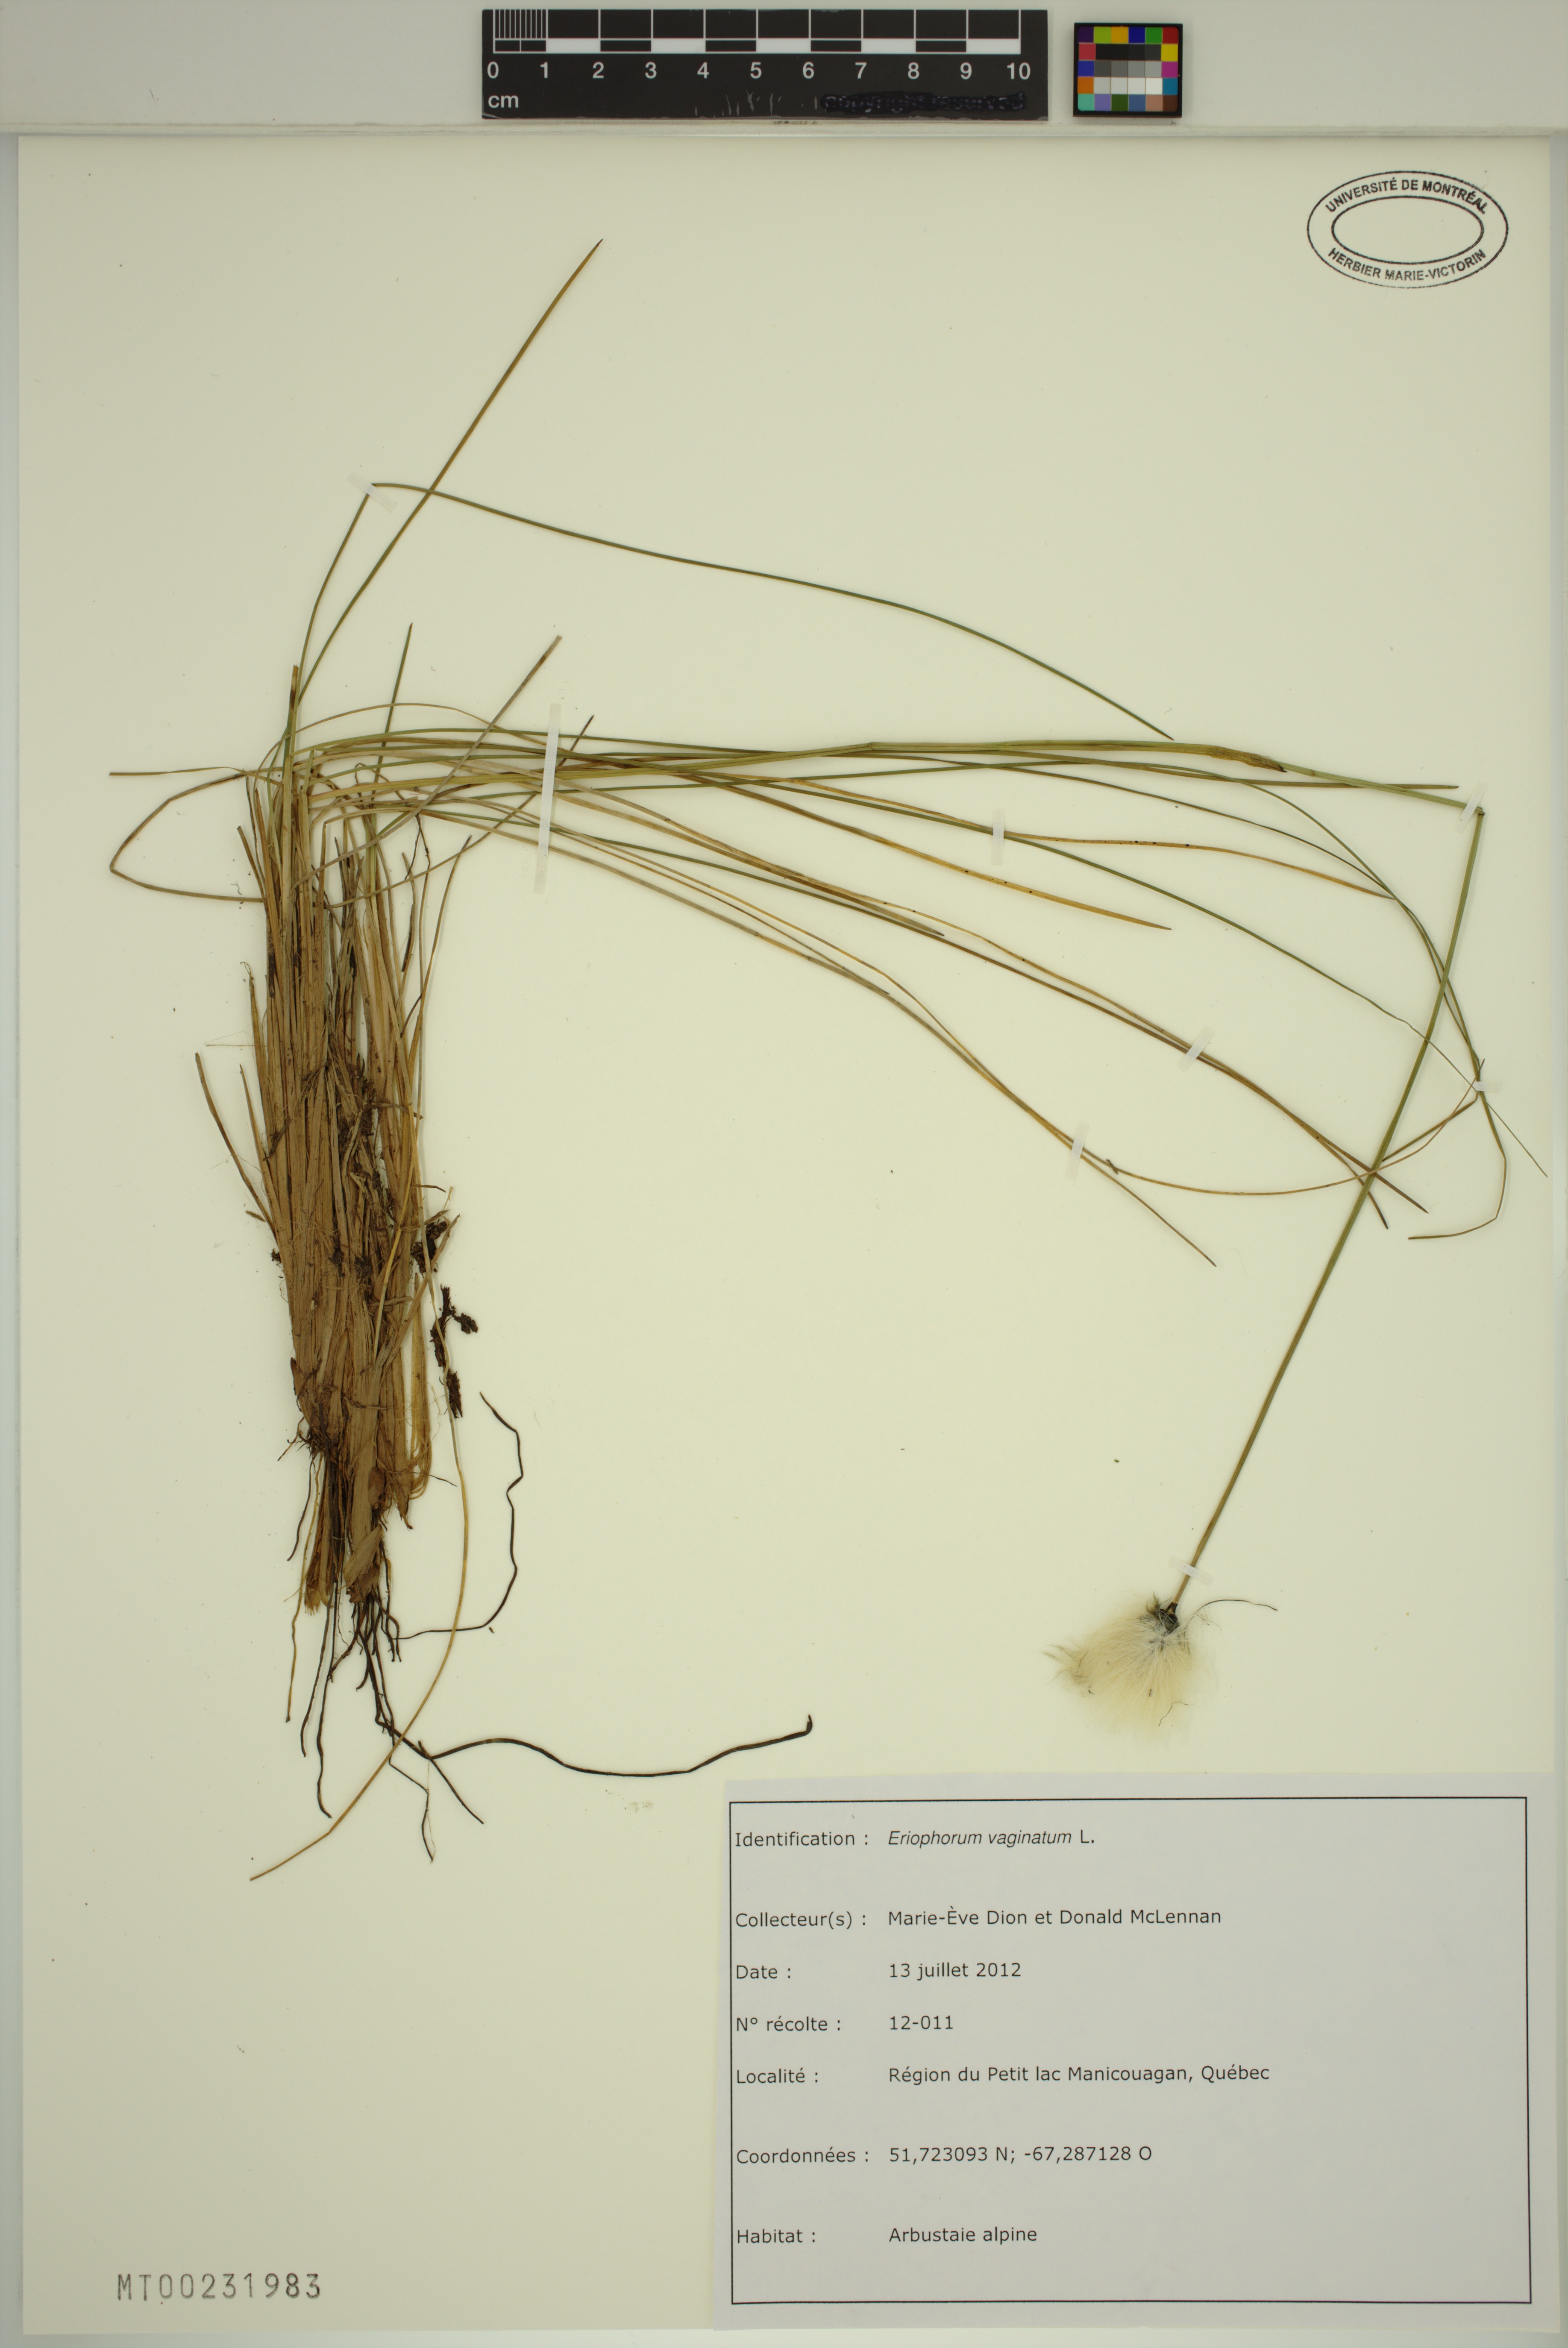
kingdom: Plantae
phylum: Tracheophyta
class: Liliopsida
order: Poales
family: Cyperaceae
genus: Eriophorum
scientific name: Eriophorum vaginatum
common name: Hare's-tail cottongrass
